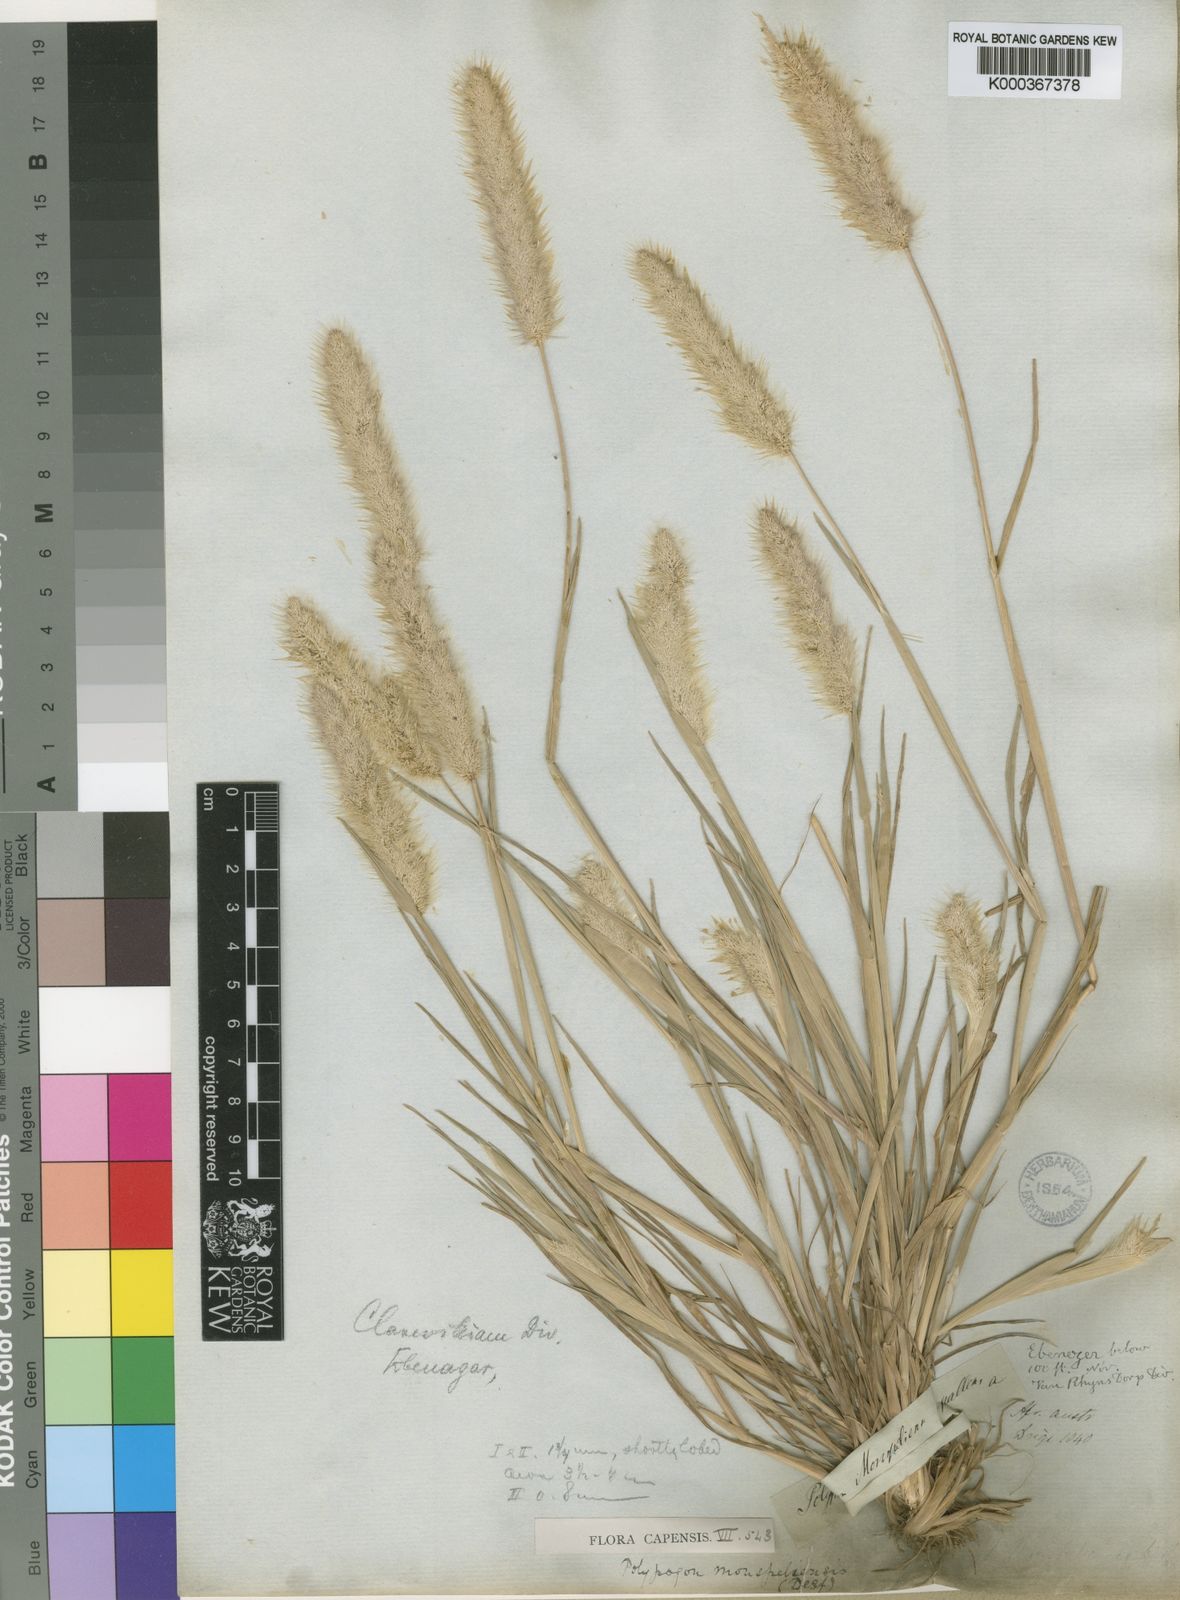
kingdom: Plantae
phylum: Tracheophyta
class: Liliopsida
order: Poales
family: Poaceae
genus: Polypogon
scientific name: Polypogon monspeliensis
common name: Annual rabbitsfoot grass
